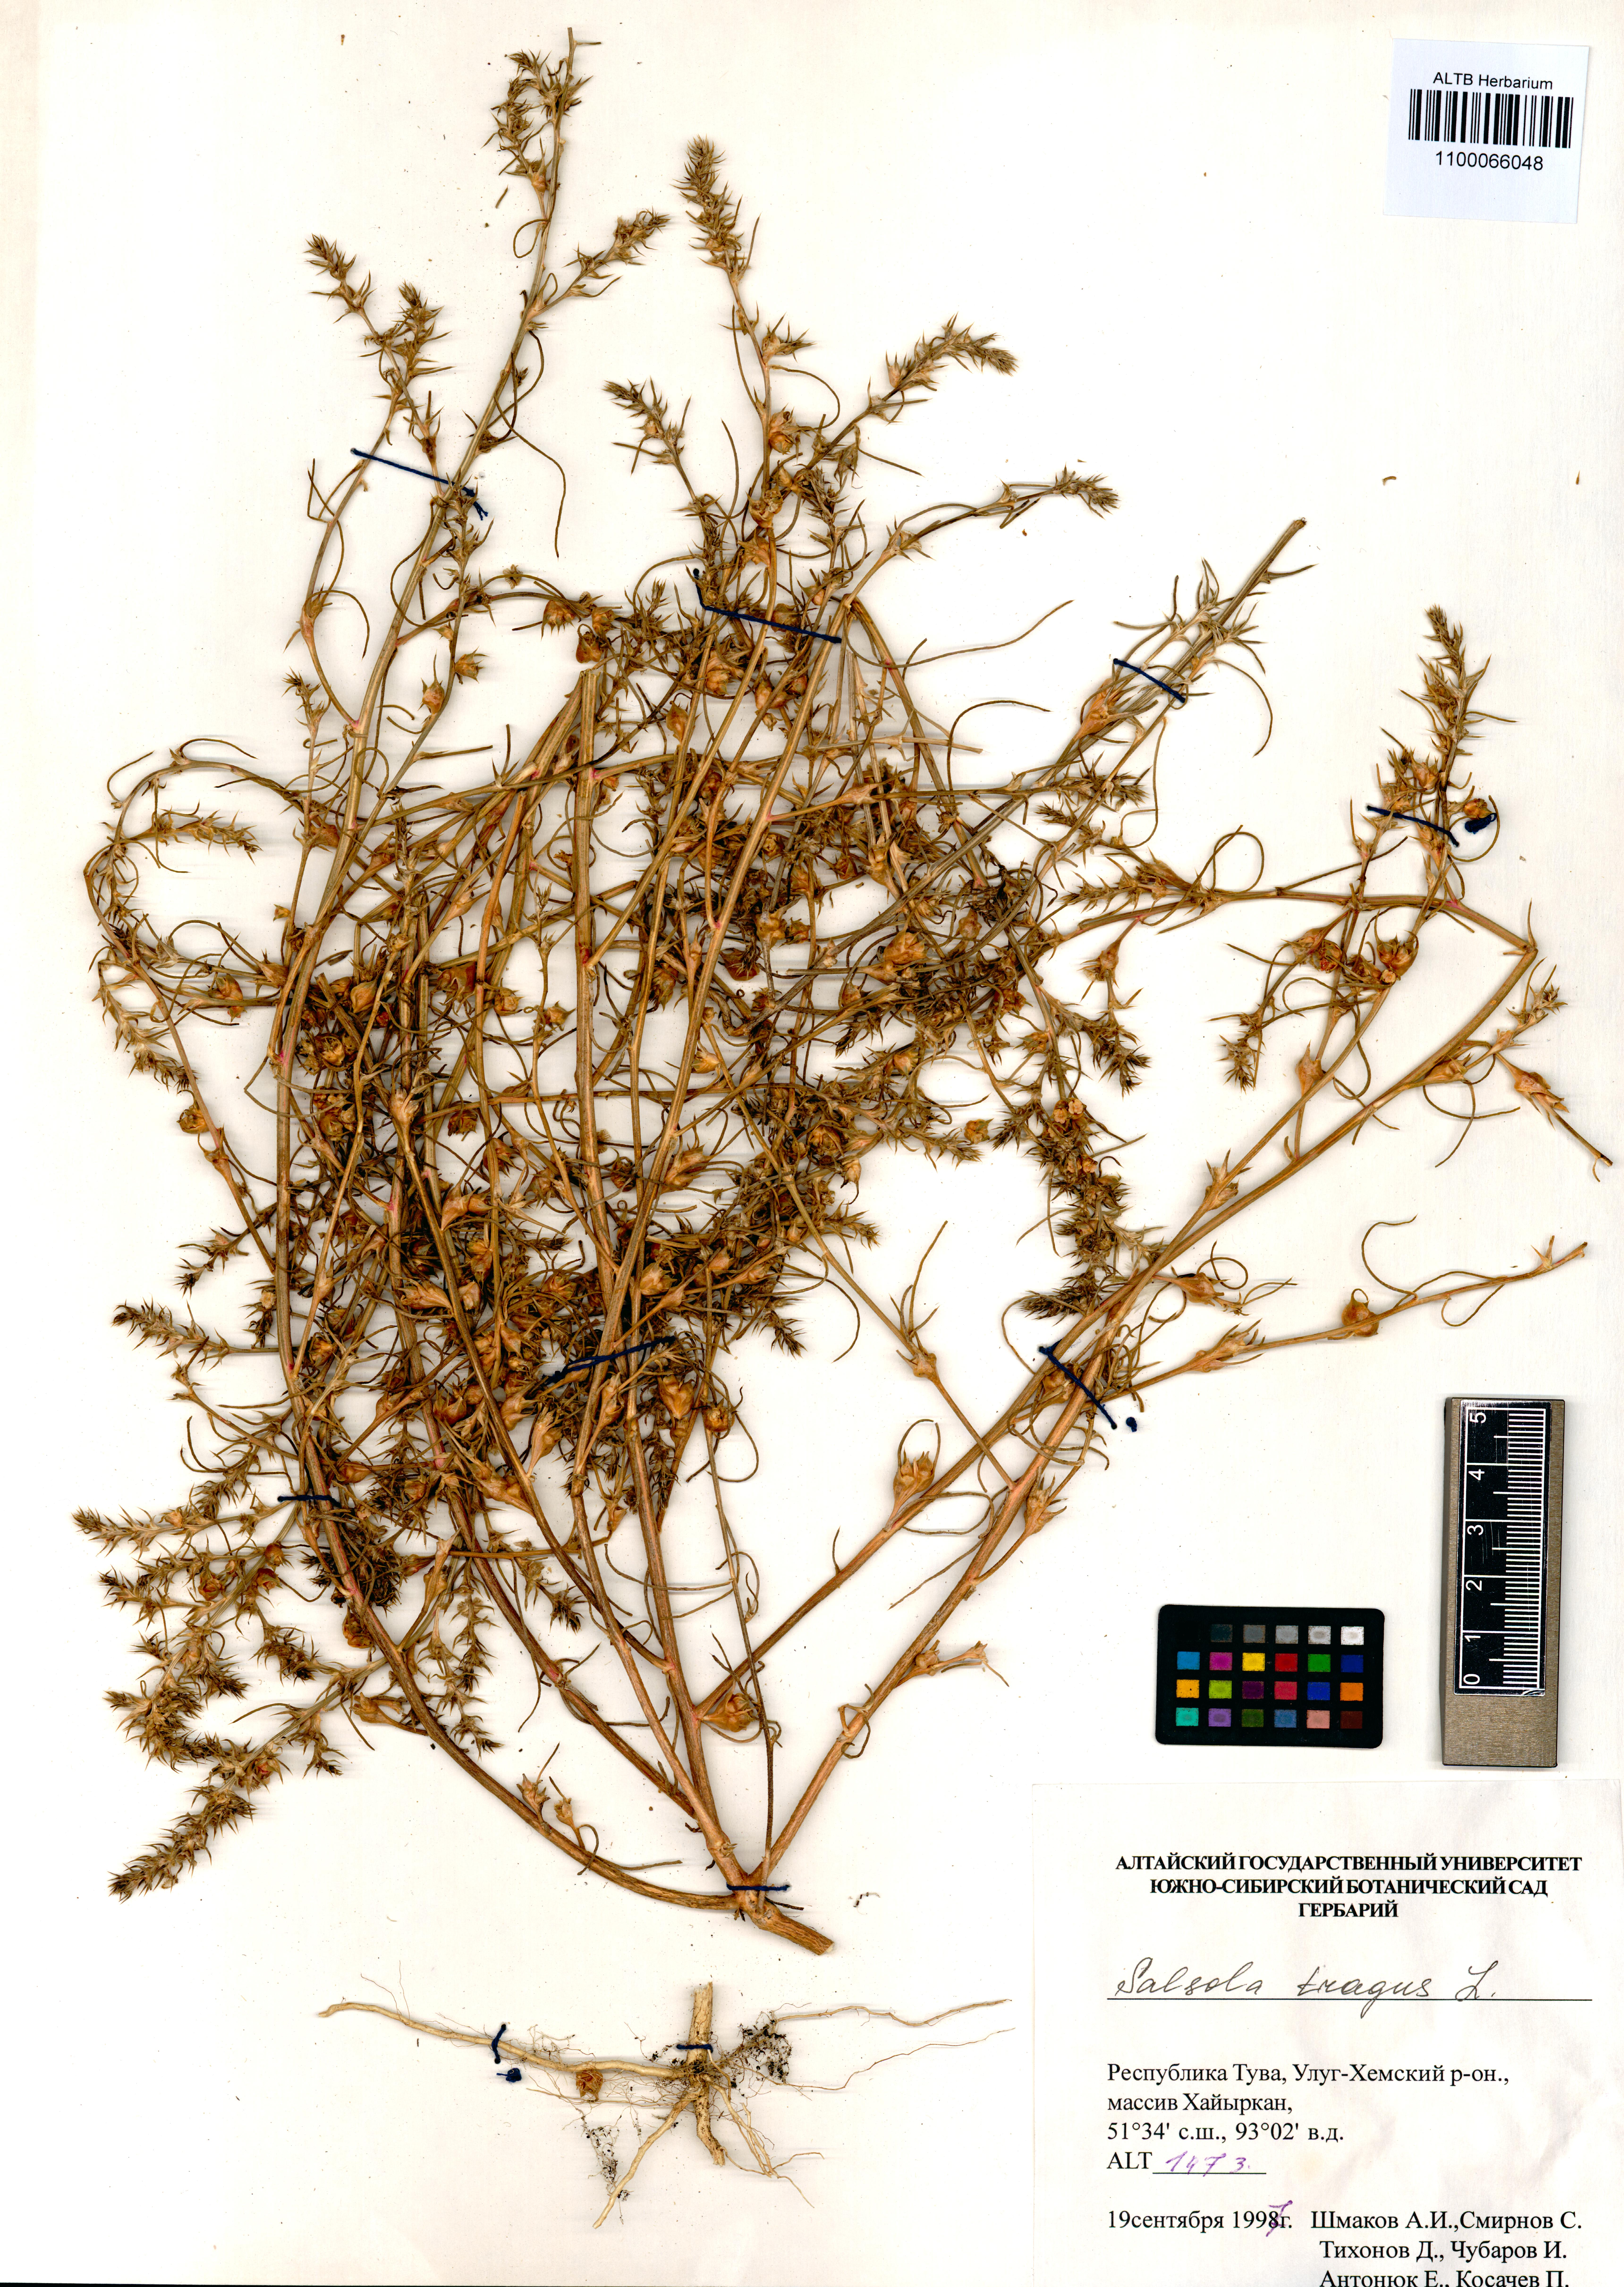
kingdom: Plantae
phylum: Tracheophyta
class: Magnoliopsida
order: Caryophyllales
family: Amaranthaceae
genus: Salsola
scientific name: Salsola tragus
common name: Prickly russian thistle
